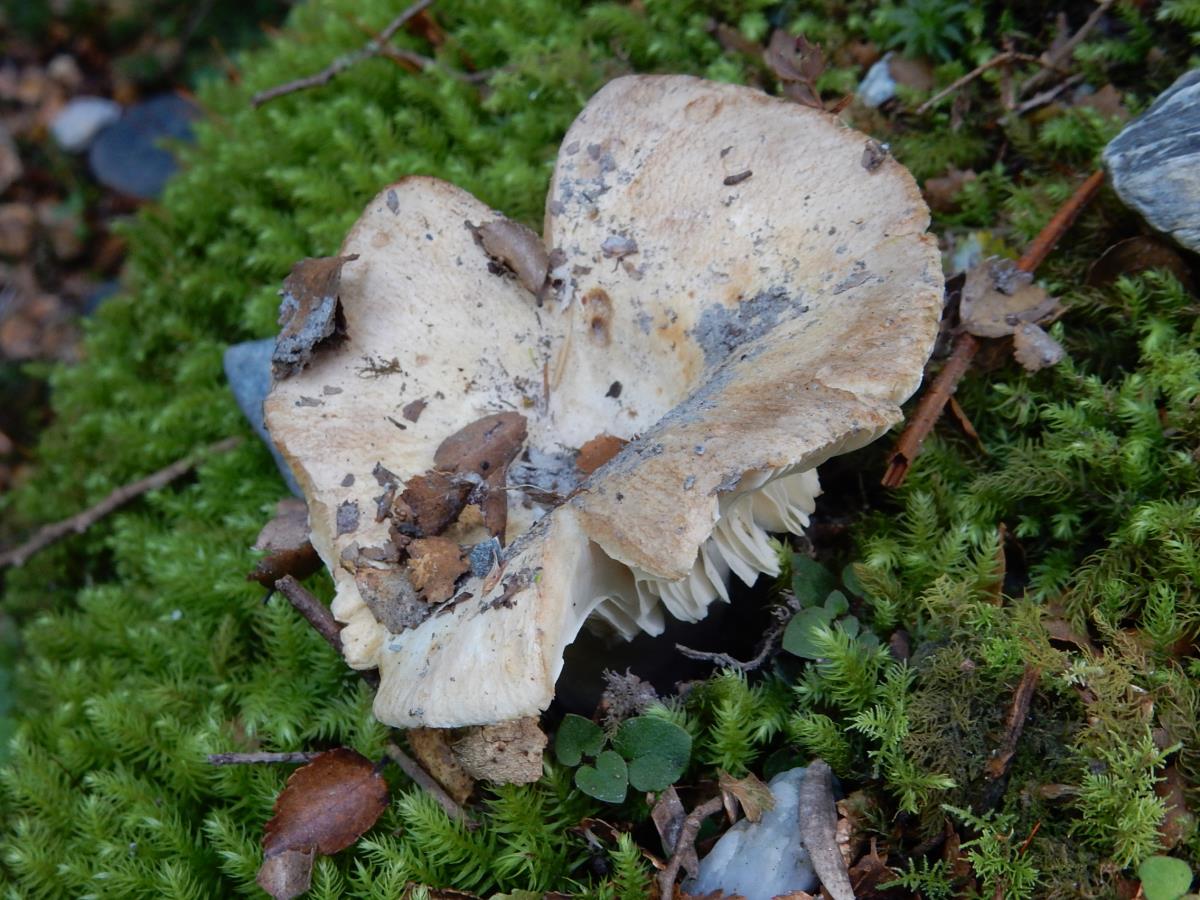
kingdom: Fungi
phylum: Basidiomycota
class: Agaricomycetes
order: Russulales
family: Russulaceae
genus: Russula
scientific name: Russula australis
